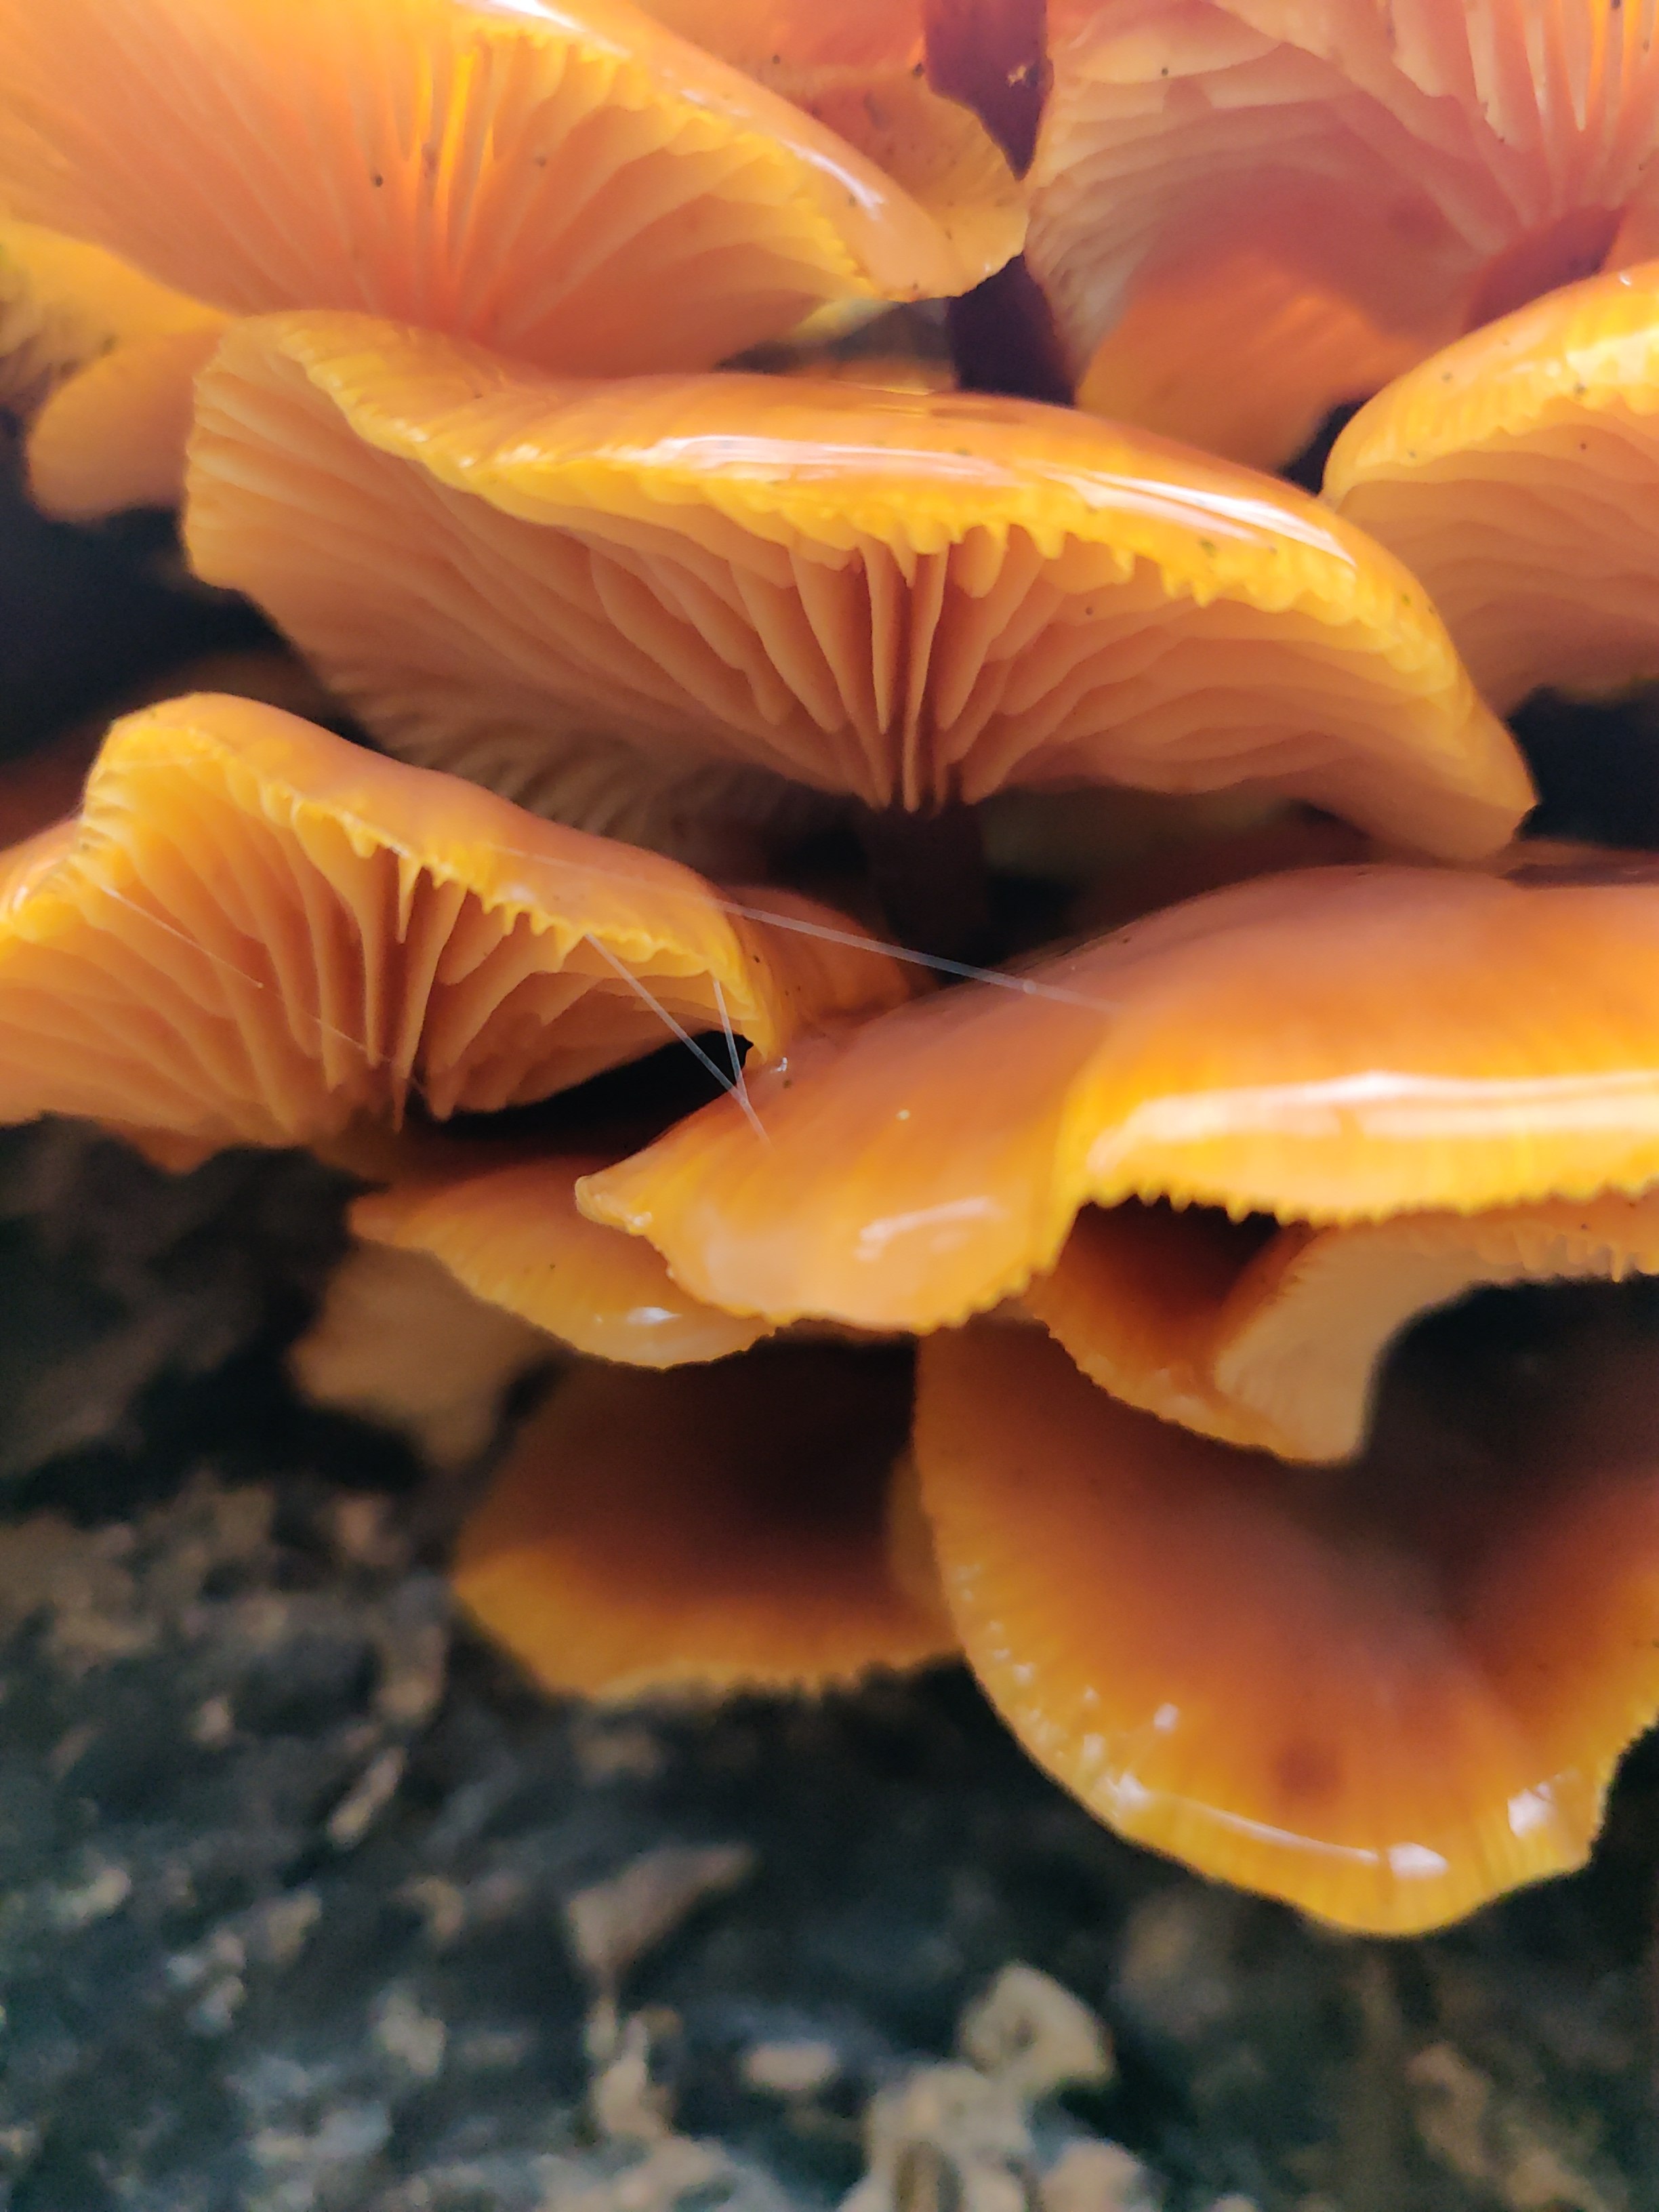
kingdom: Fungi
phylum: Basidiomycota
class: Agaricomycetes
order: Agaricales
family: Physalacriaceae
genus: Flammulina
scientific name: Flammulina velutipes
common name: gul fløjlsfod
